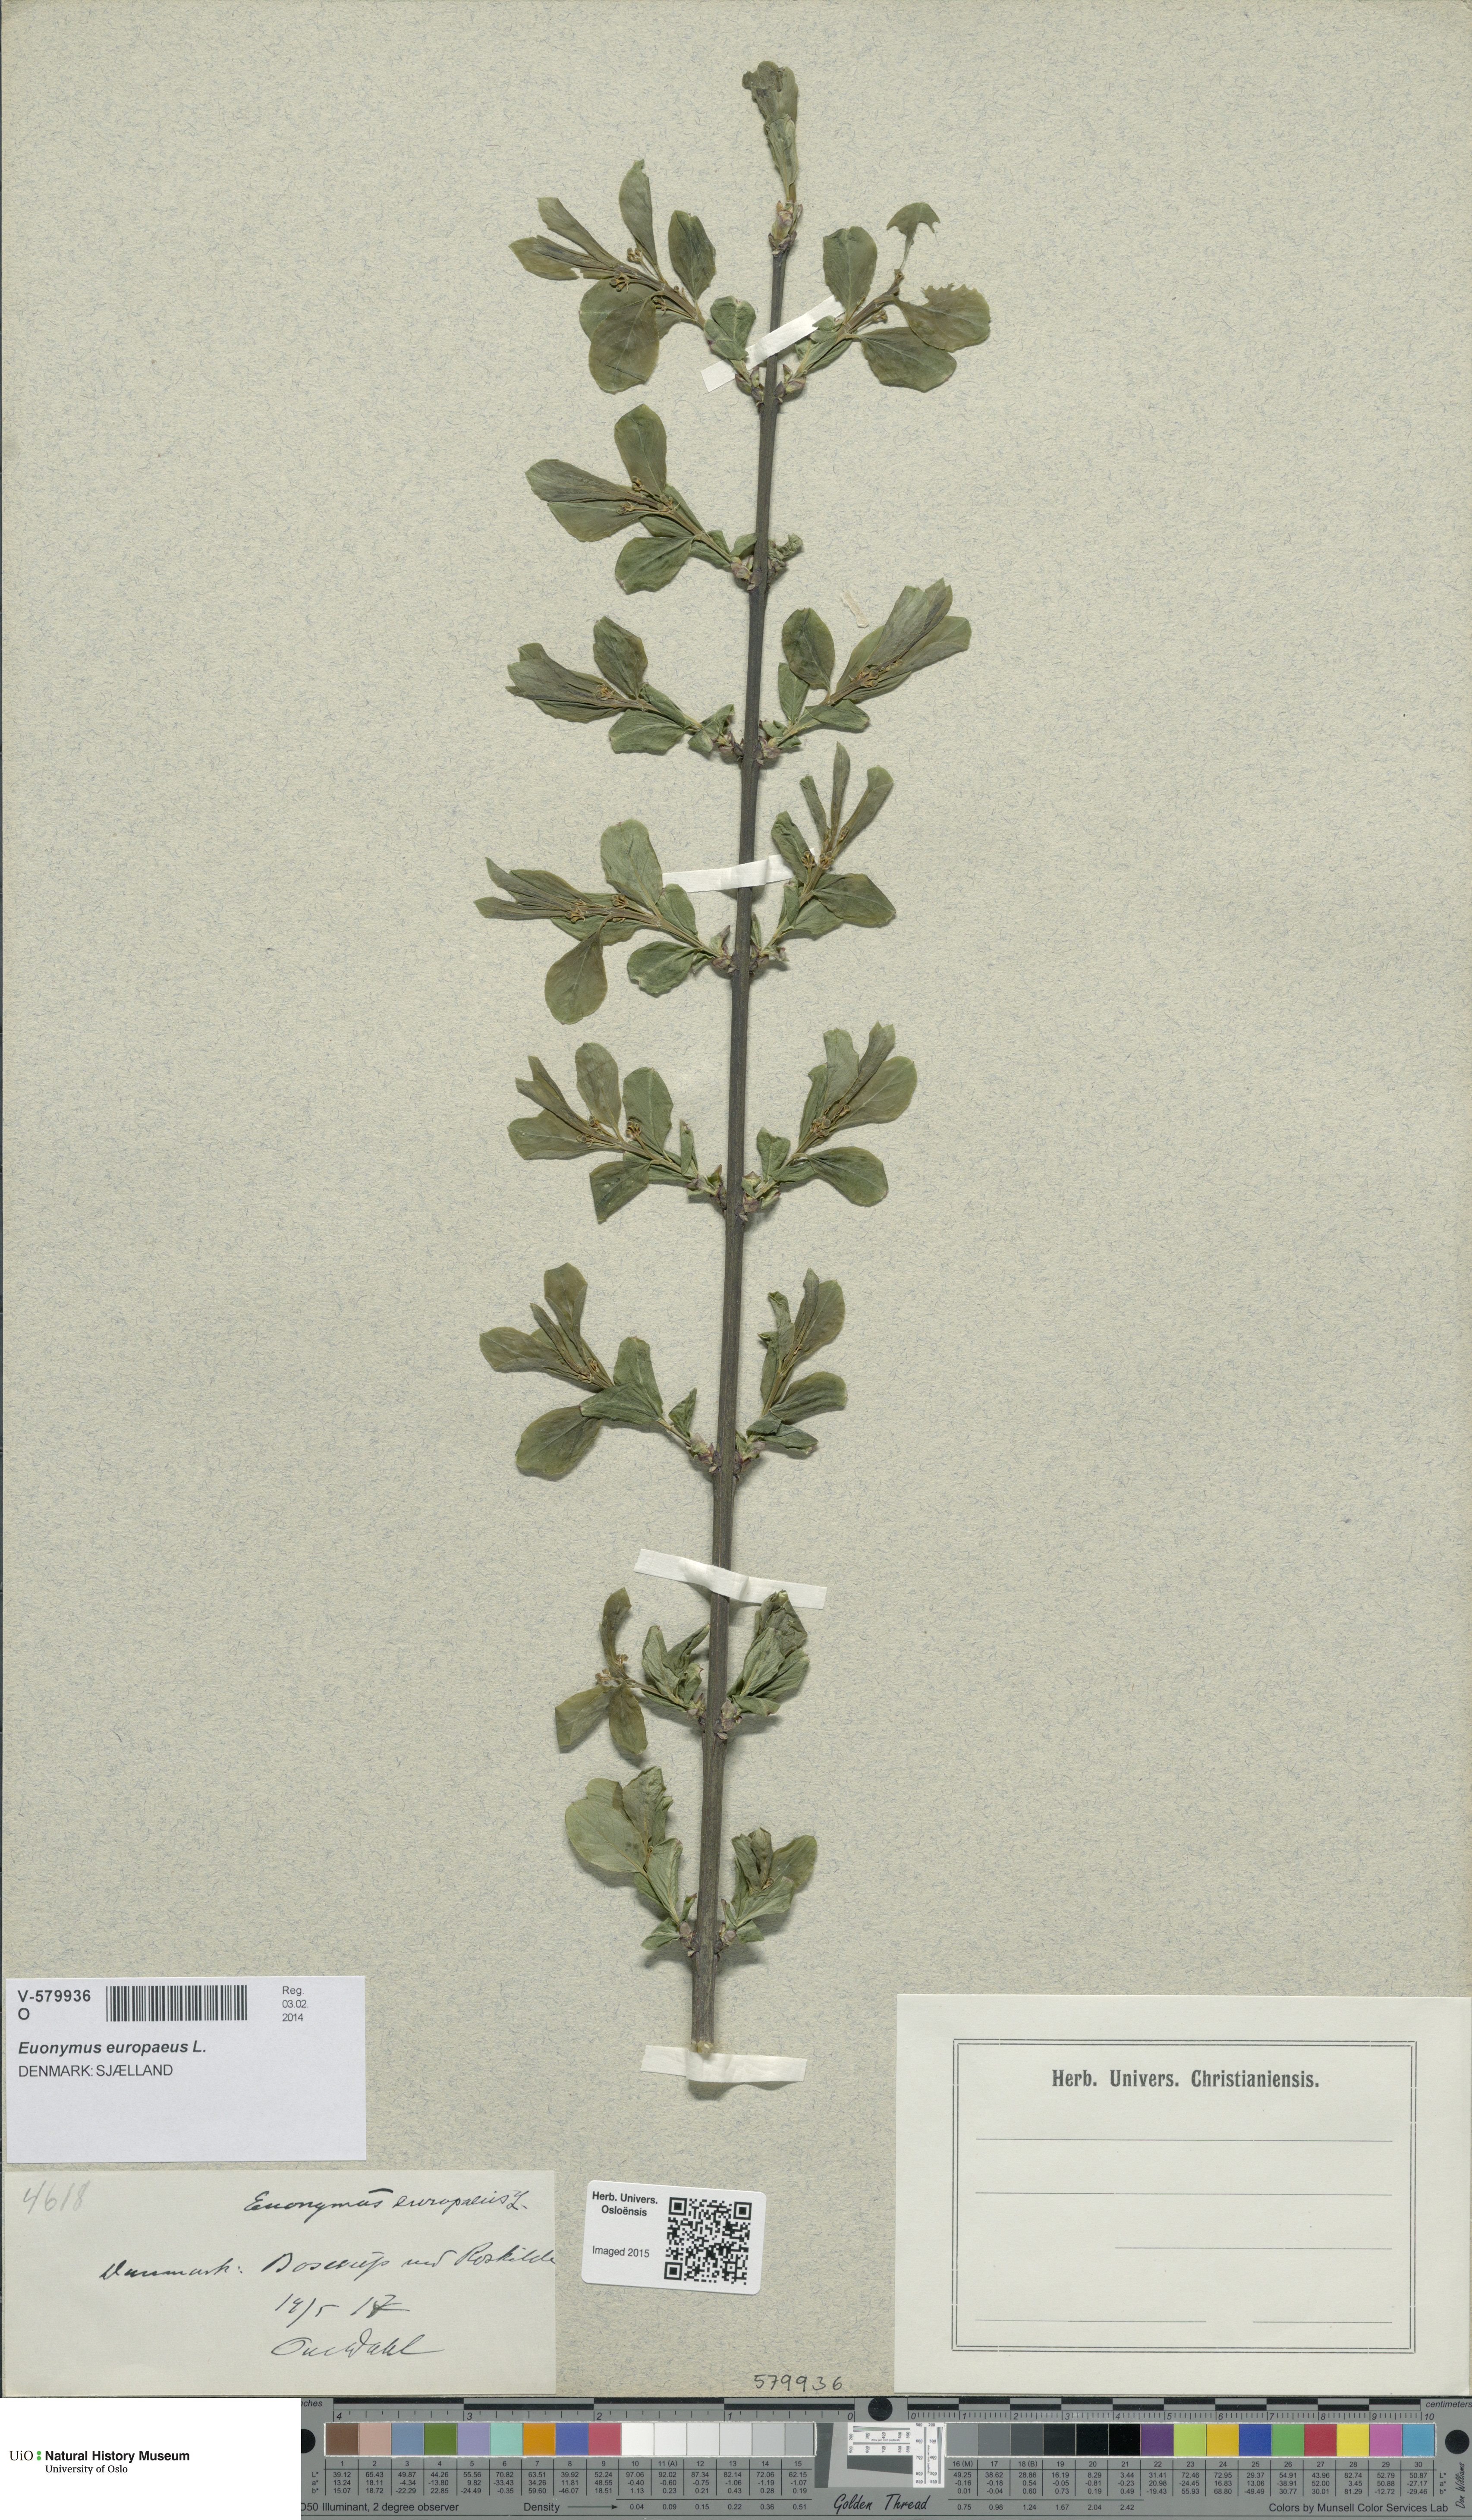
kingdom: Plantae
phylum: Tracheophyta
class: Magnoliopsida
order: Celastrales
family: Celastraceae
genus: Euonymus
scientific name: Euonymus europaeus
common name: Spindle
